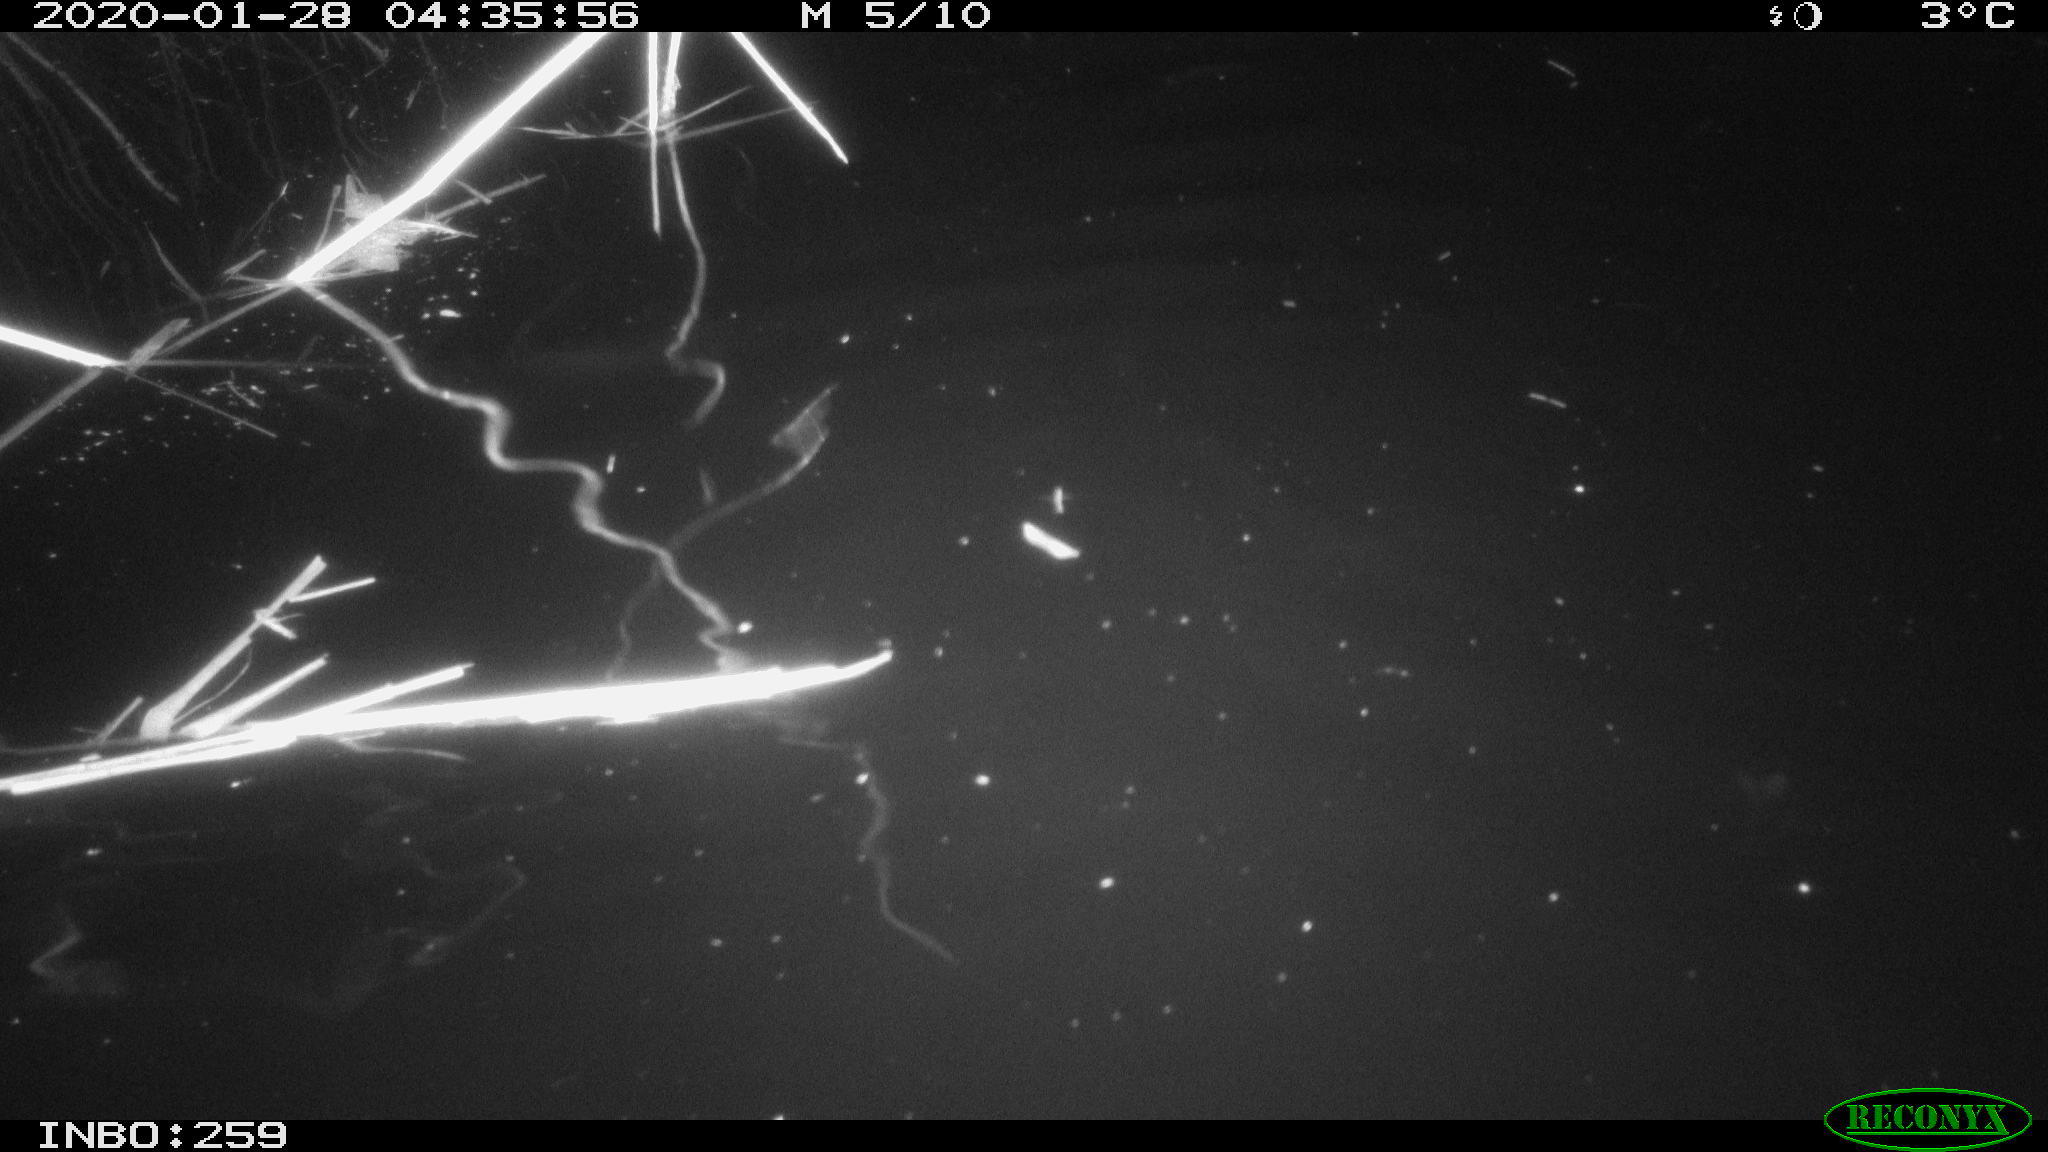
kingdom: Animalia
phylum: Chordata
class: Mammalia
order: Rodentia
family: Cricetidae
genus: Ondatra
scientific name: Ondatra zibethicus
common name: Muskrat
